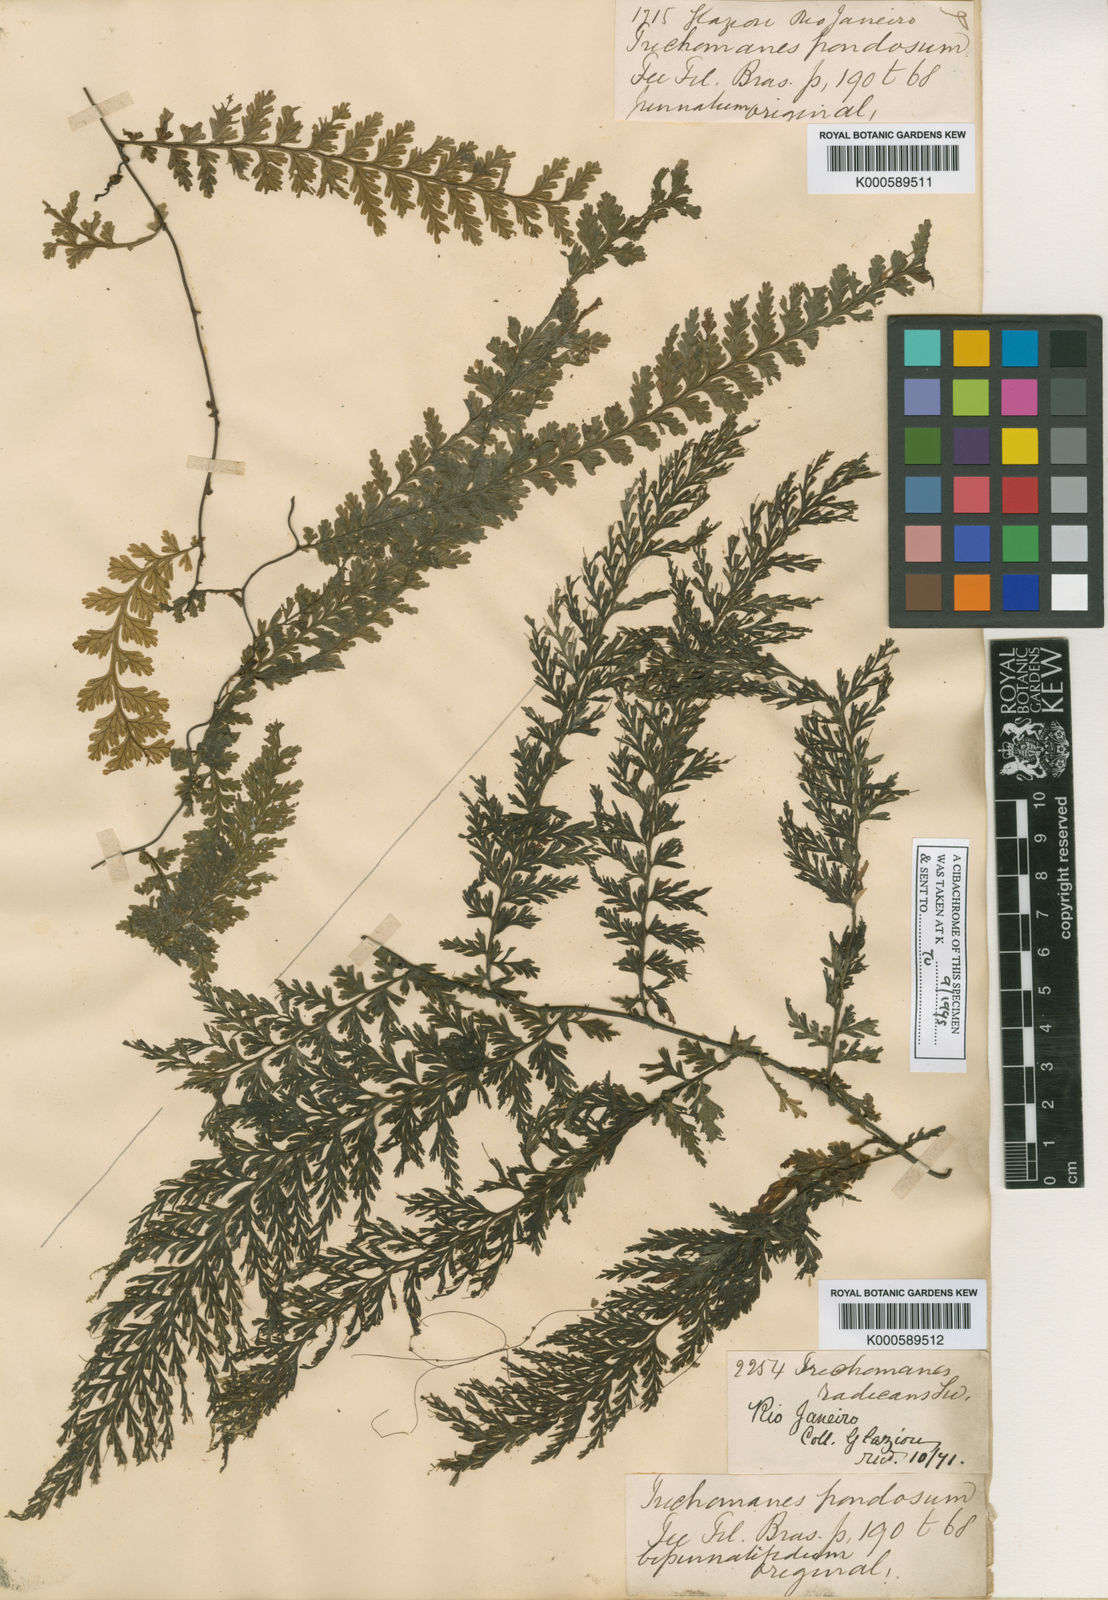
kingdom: Plantae
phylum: Tracheophyta
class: Polypodiopsida
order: Hymenophyllales
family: Hymenophyllaceae
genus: Vandenboschia
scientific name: Vandenboschia rupestris
